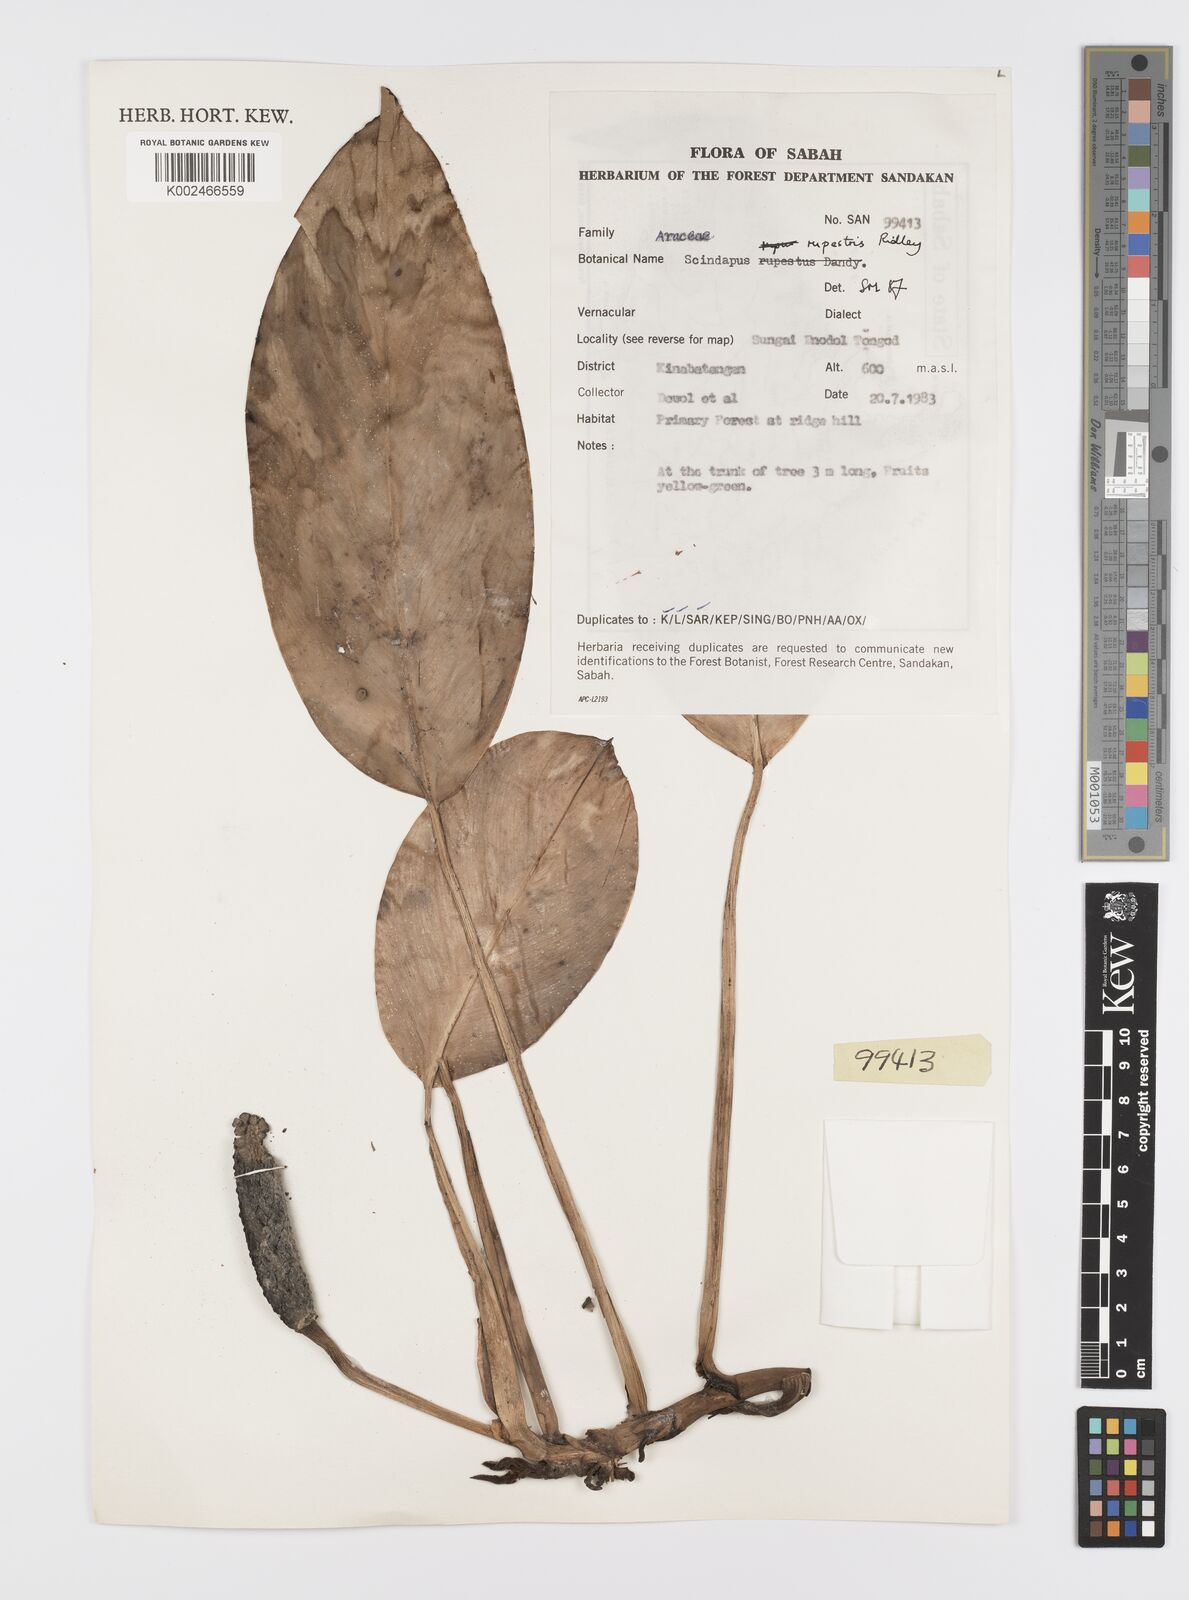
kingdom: Plantae
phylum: Tracheophyta
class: Liliopsida
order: Alismatales
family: Araceae
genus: Scindapsus
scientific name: Scindapsus coriaceus
